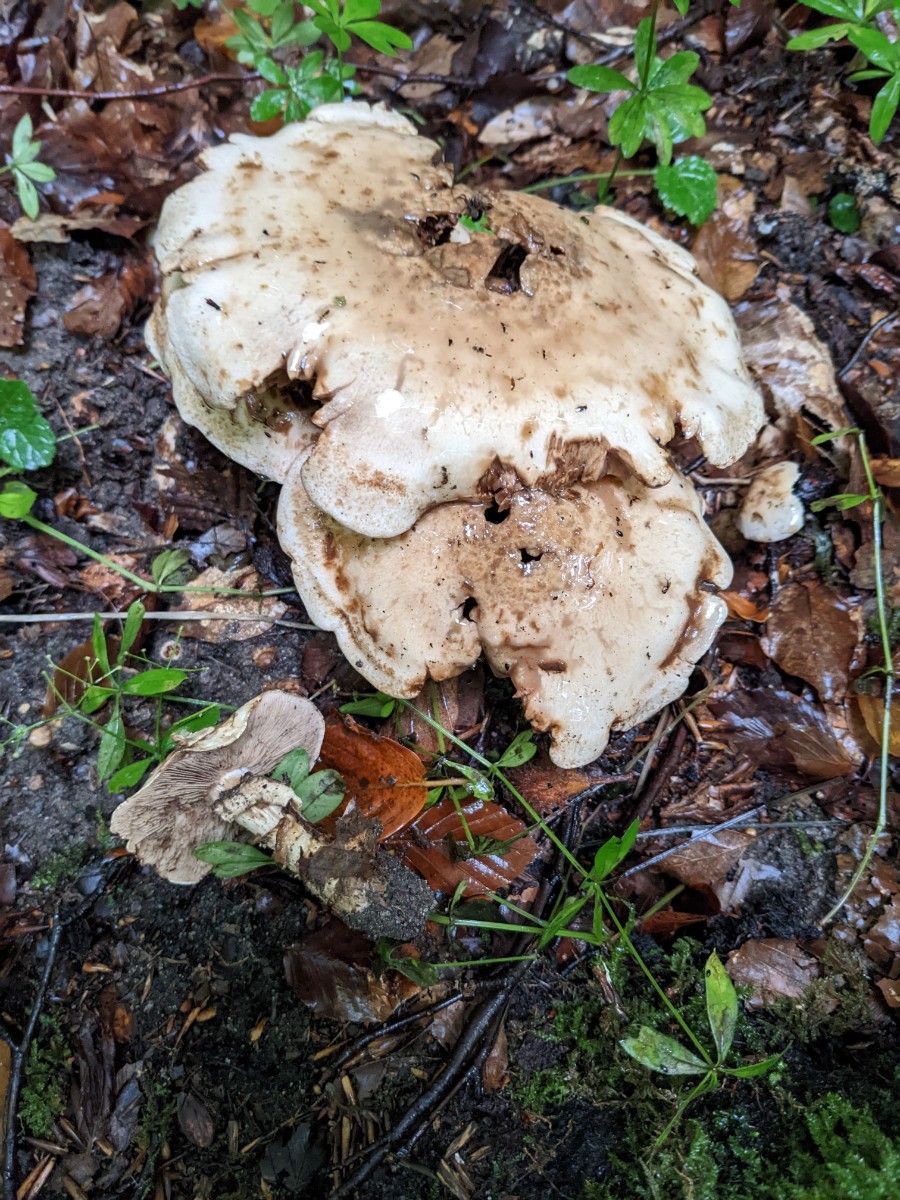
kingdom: Fungi
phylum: Basidiomycota
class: Agaricomycetes
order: Agaricales
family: Hymenogastraceae
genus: Hebeloma
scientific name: Hebeloma radicosum
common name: pælerods-tåreblad
